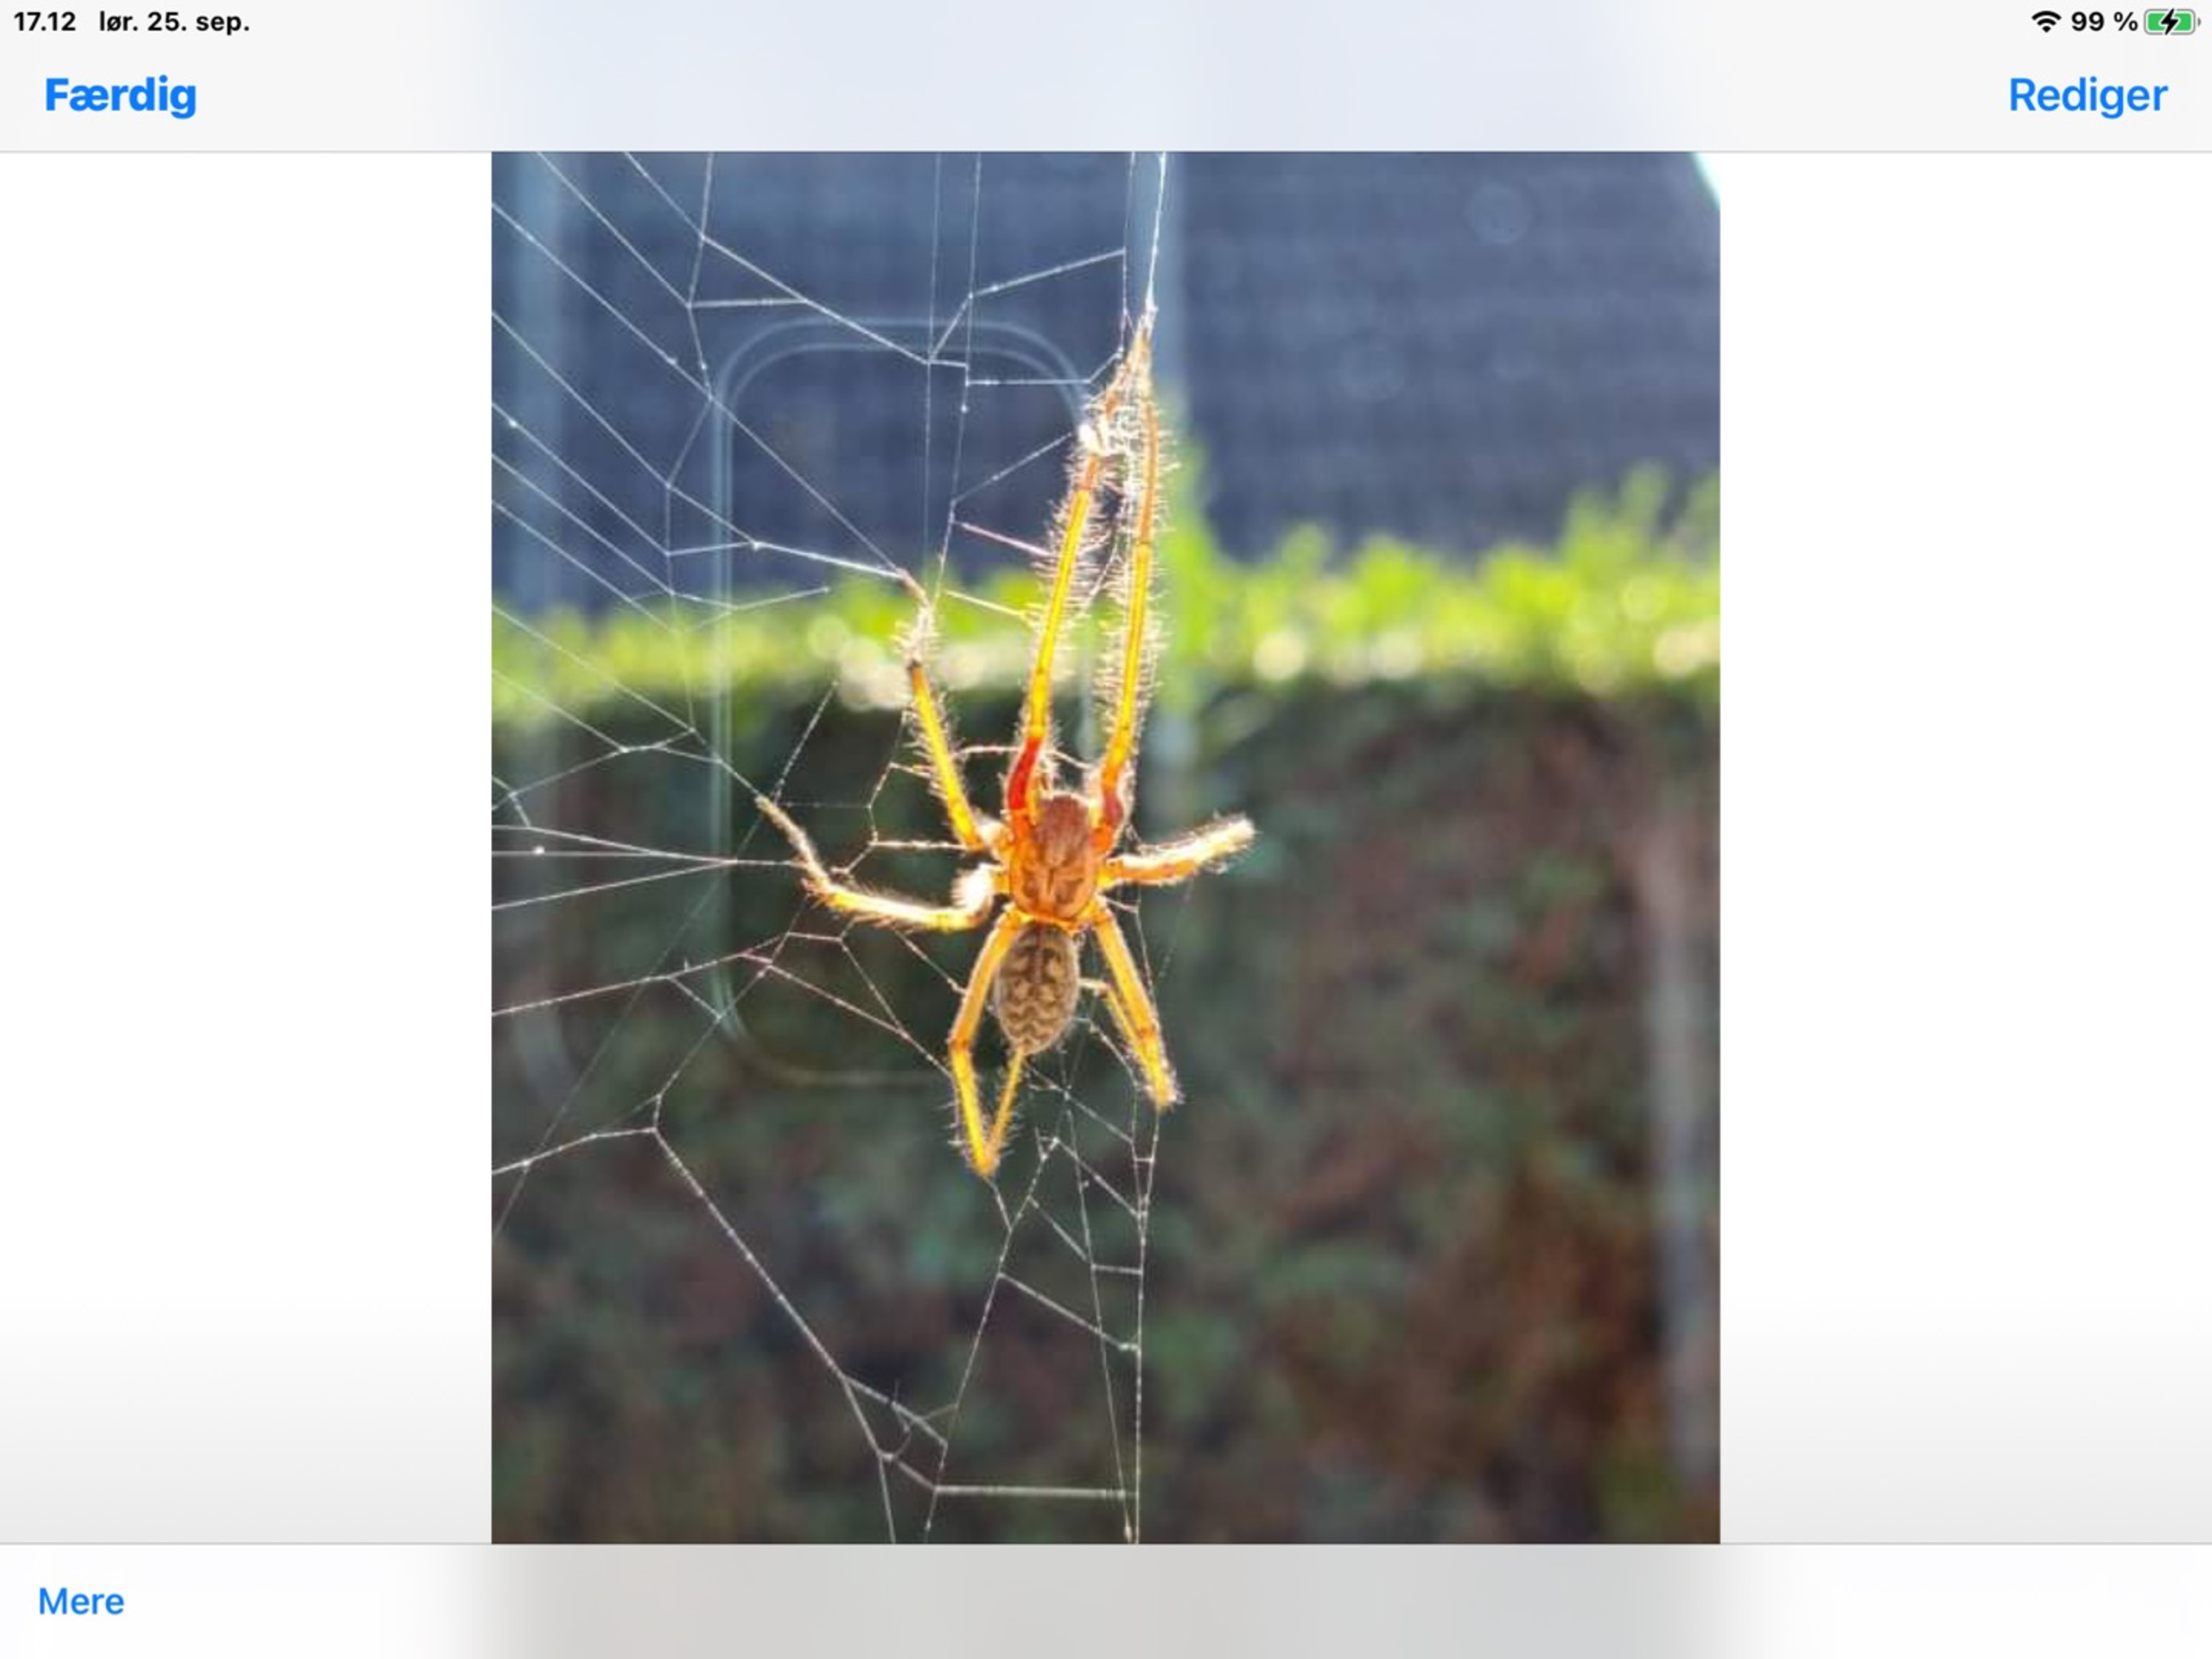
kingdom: Animalia
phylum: Arthropoda
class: Arachnida
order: Araneae
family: Agelenidae
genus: Eratigena
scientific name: Eratigena atrica
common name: Stor husedderkop
